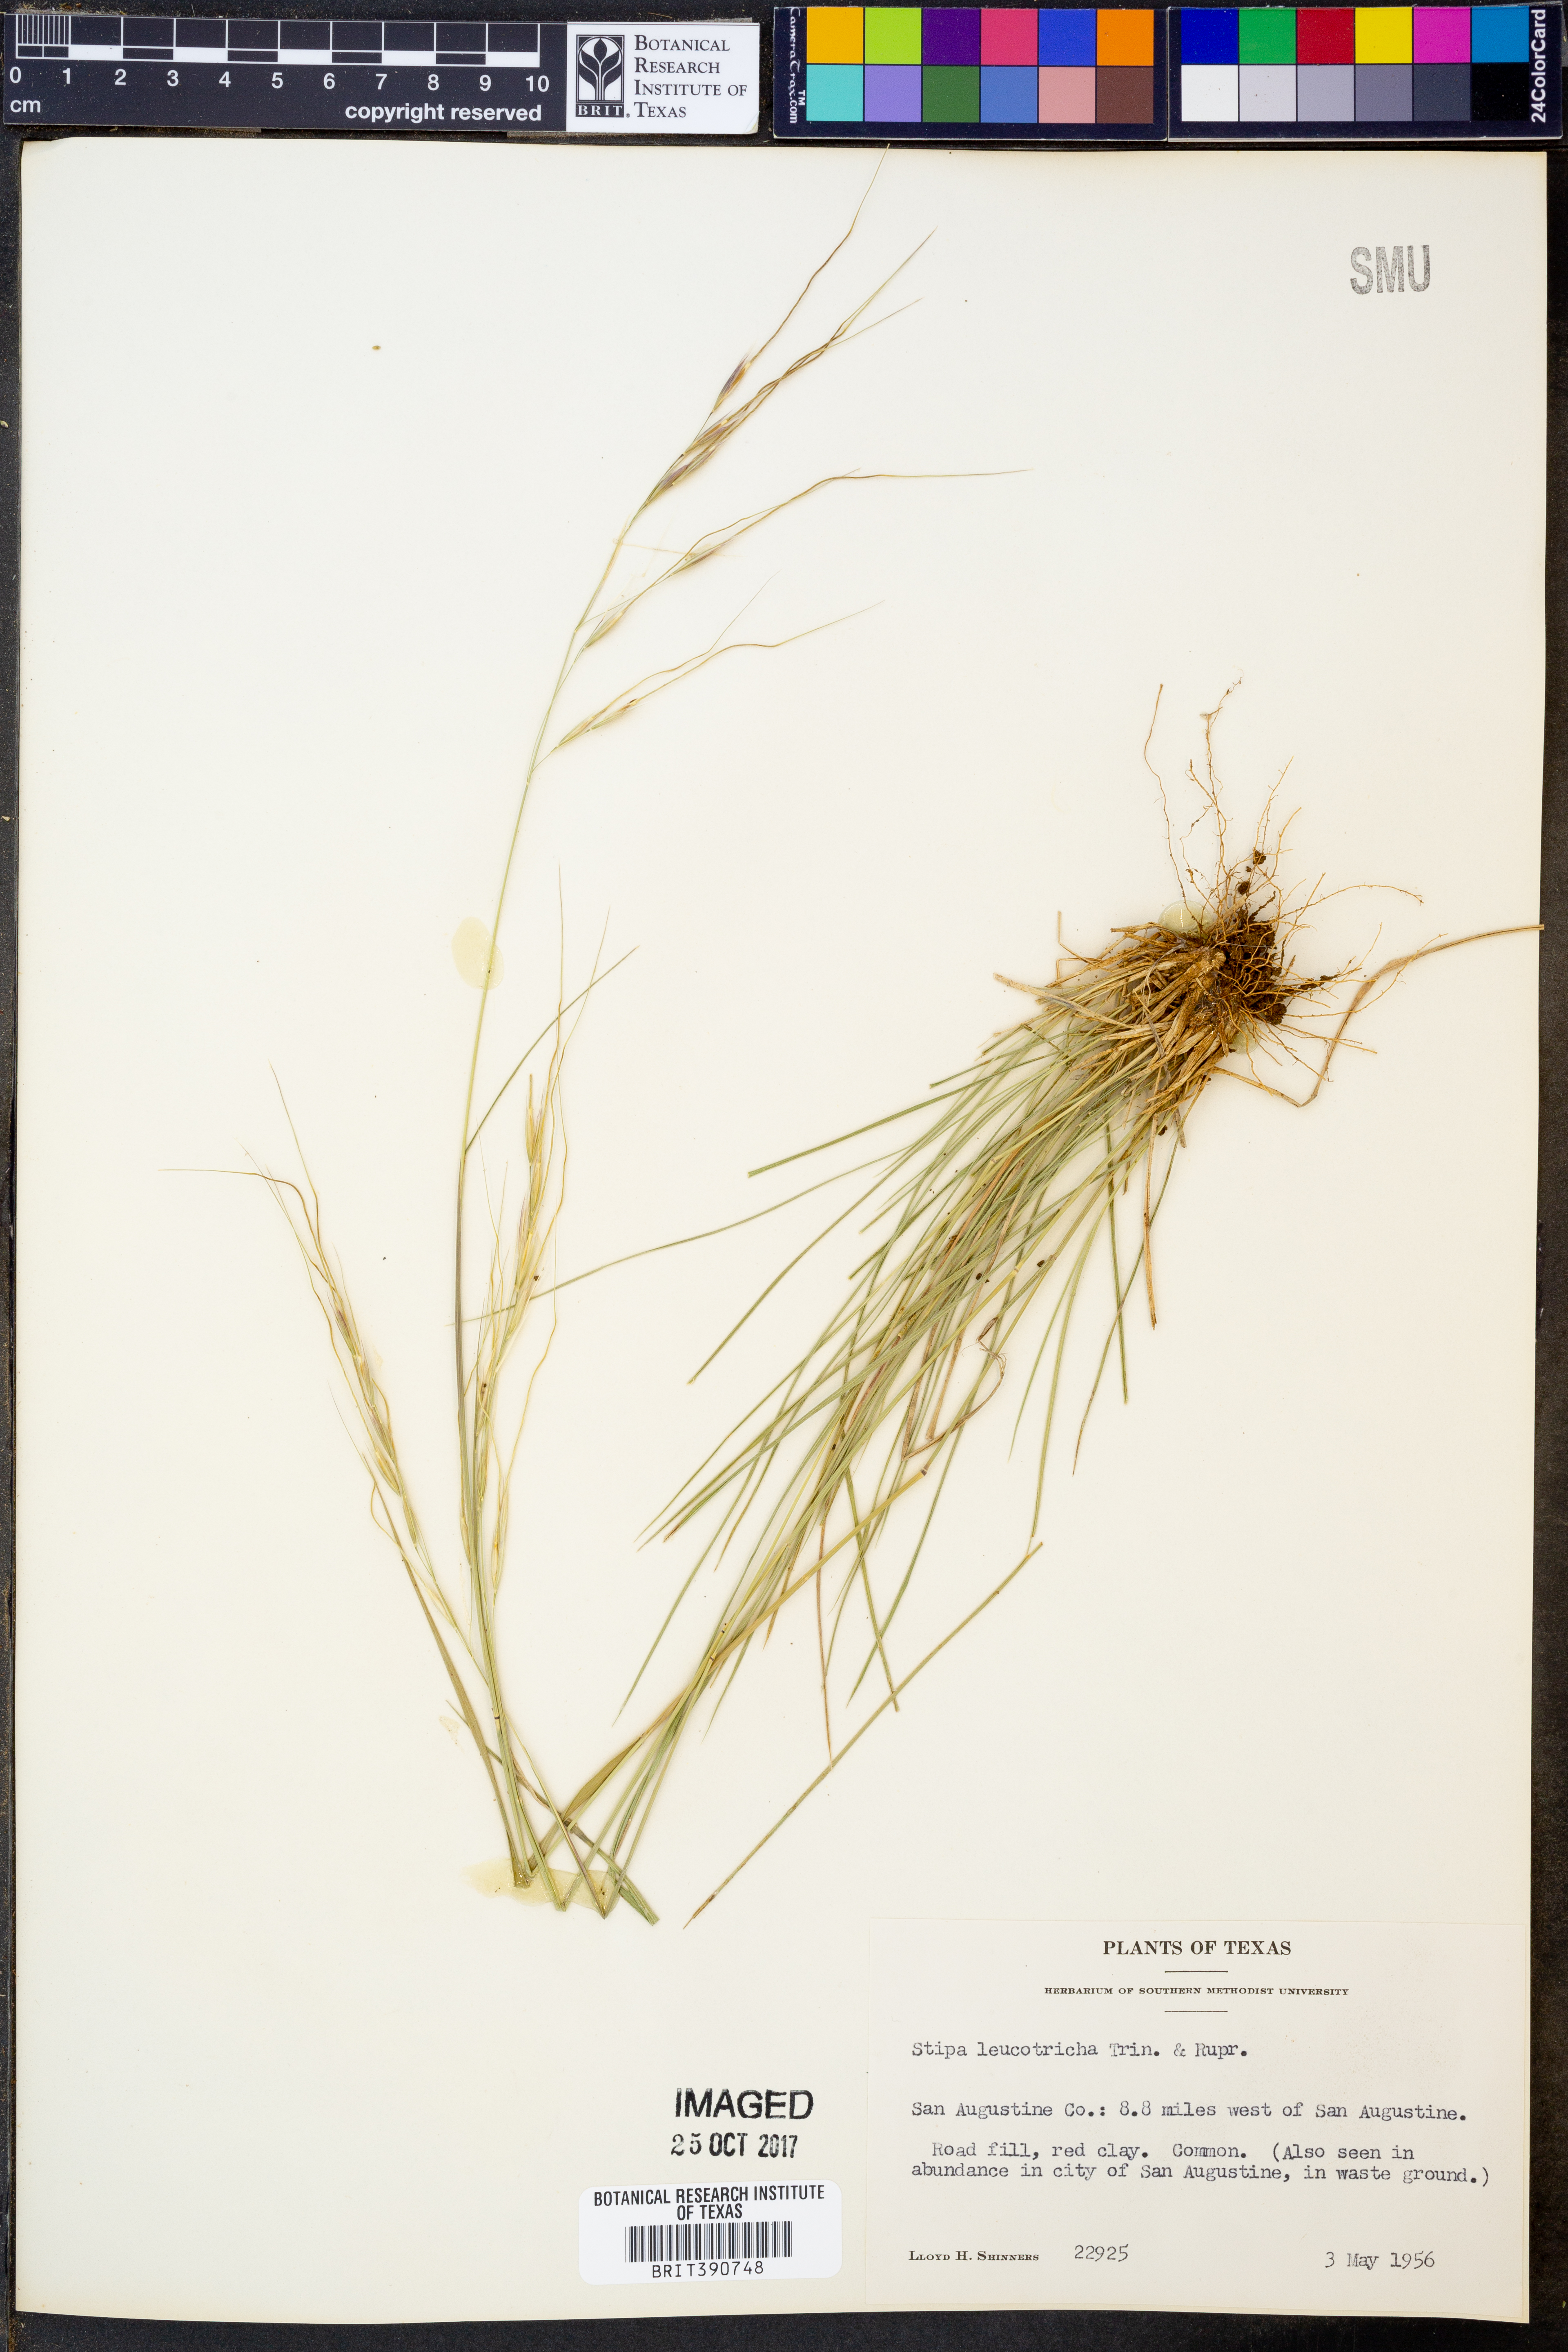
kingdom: Plantae
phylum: Tracheophyta
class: Liliopsida
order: Poales
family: Poaceae
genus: Nassella
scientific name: Nassella leucotricha
